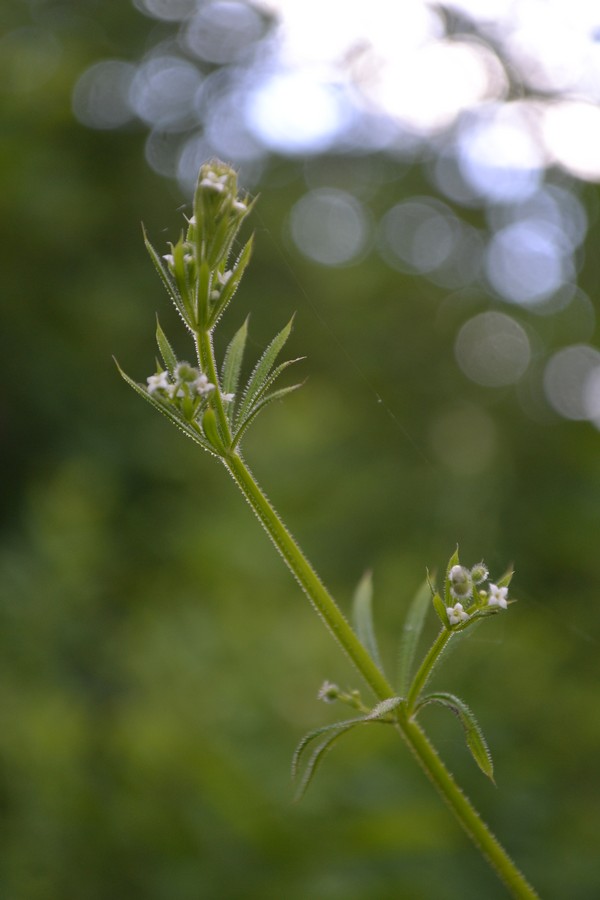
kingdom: Plantae
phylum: Tracheophyta
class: Magnoliopsida
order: Gentianales
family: Rubiaceae
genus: Galium
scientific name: Galium rivale
